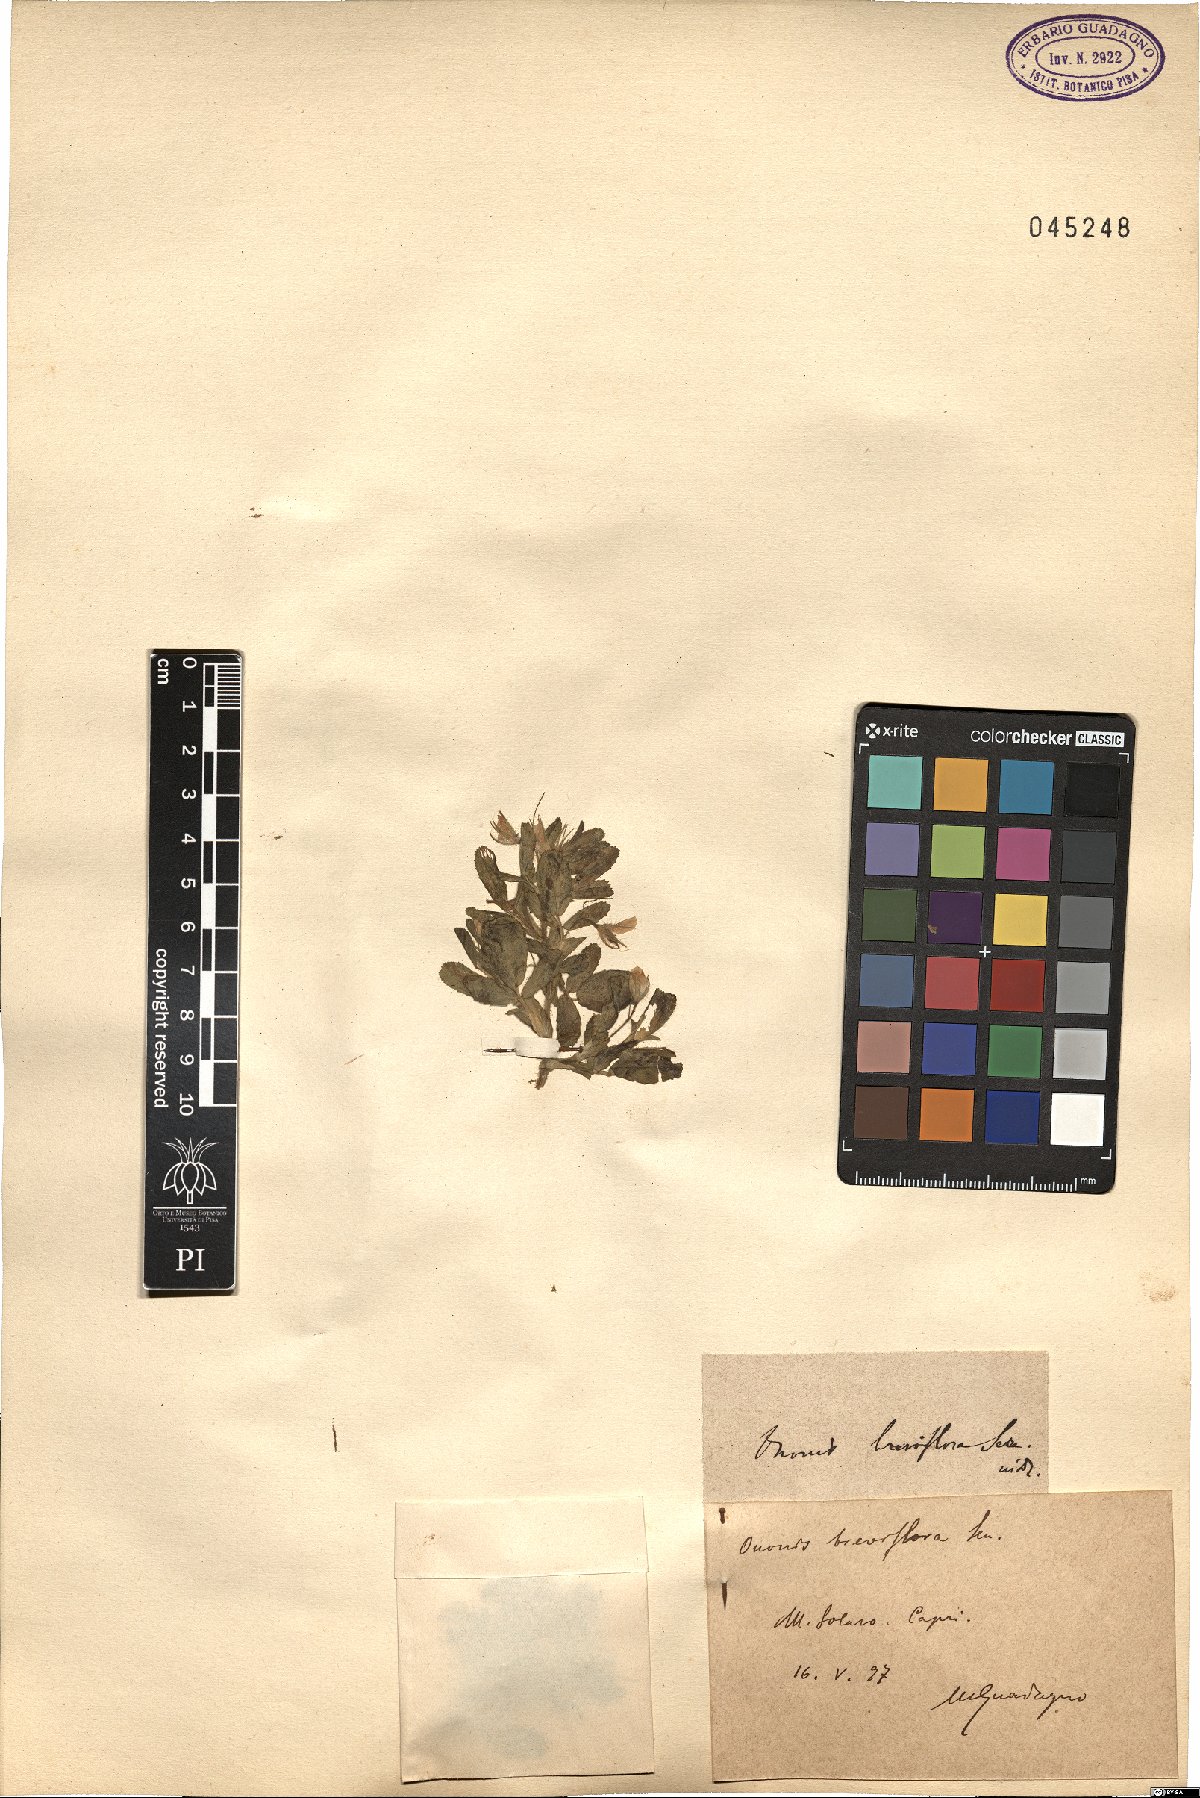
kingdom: Plantae
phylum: Tracheophyta
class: Magnoliopsida
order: Fabales
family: Fabaceae
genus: Ononis
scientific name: Ononis viscosa
